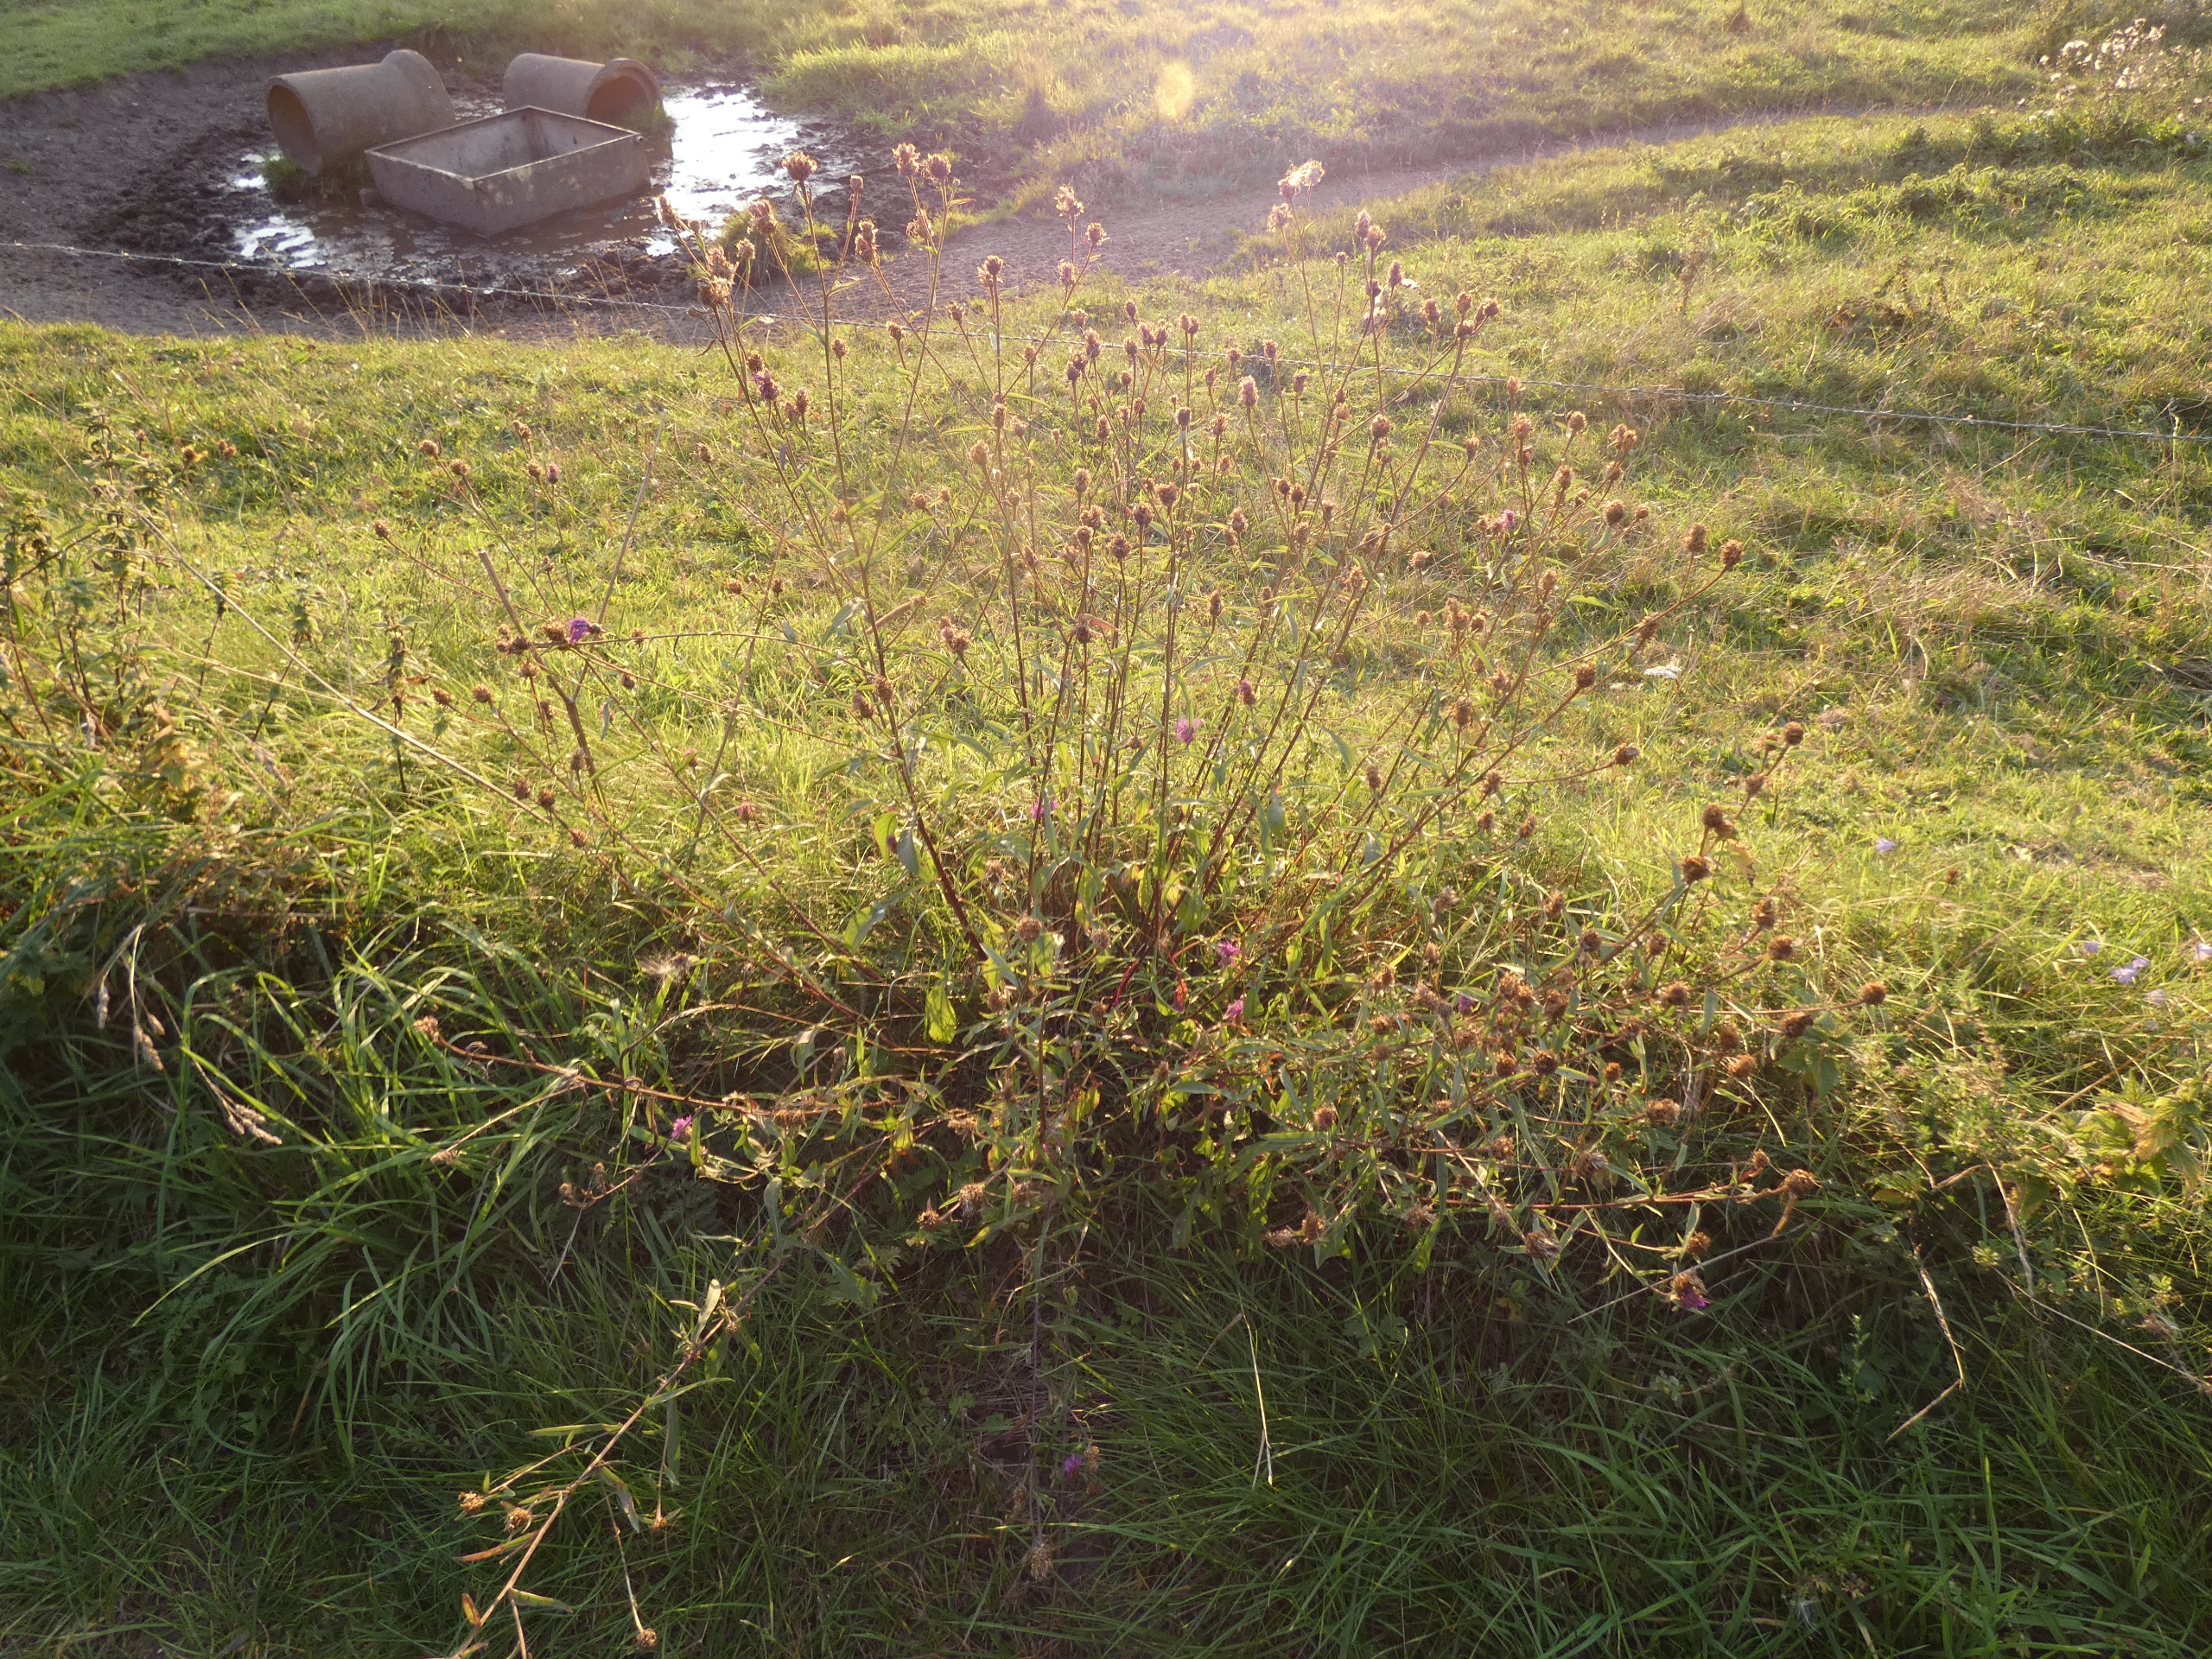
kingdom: Plantae
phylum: Tracheophyta
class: Magnoliopsida
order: Asterales
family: Asteraceae
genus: Centaurea
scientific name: Centaurea jacea
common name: Almindelig knopurt
